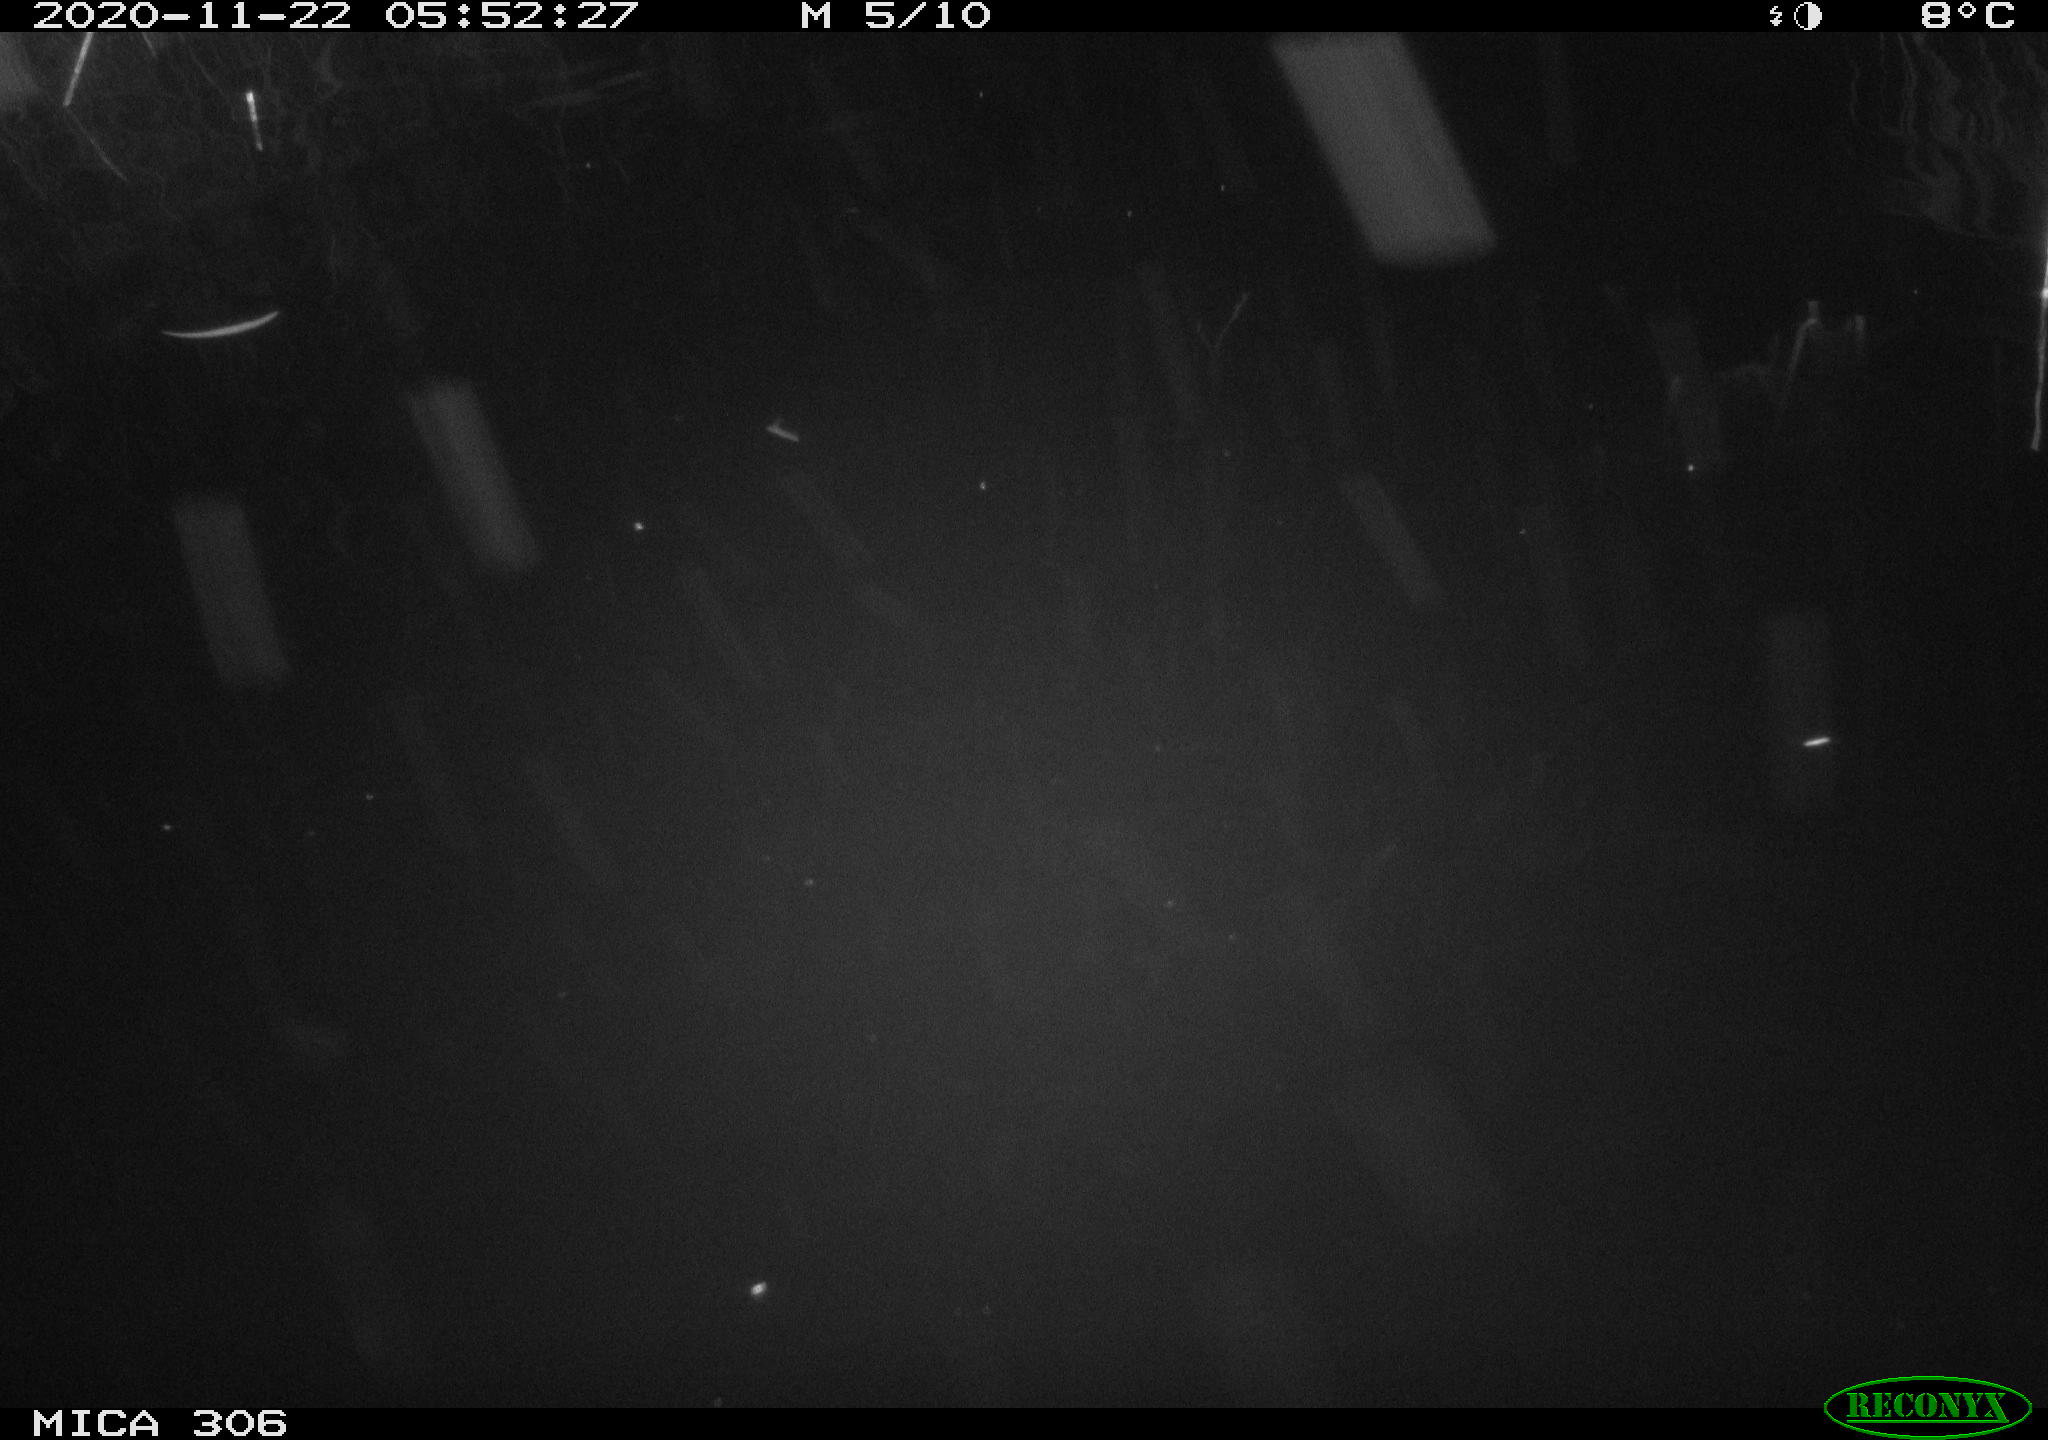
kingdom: Animalia
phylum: Chordata
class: Mammalia
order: Rodentia
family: Cricetidae
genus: Ondatra
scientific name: Ondatra zibethicus
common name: Muskrat
